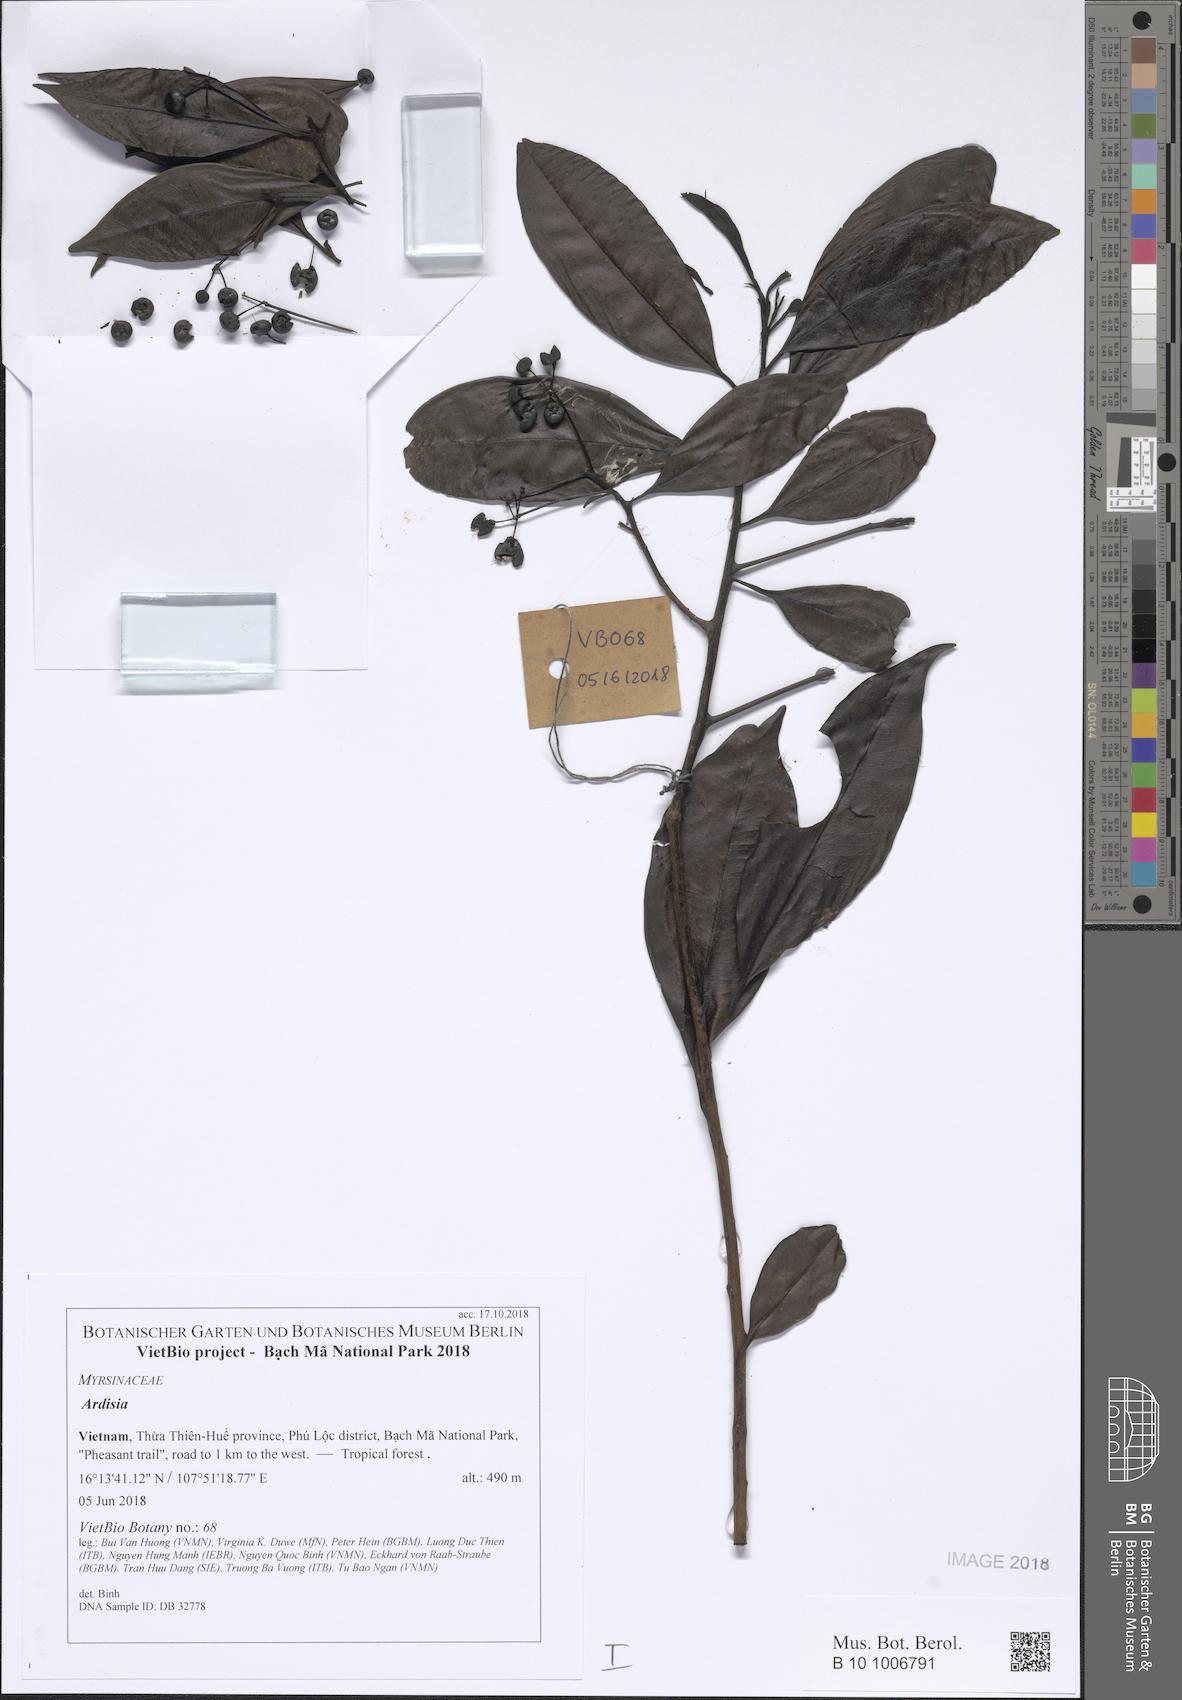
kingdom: Plantae
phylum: Tracheophyta
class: Magnoliopsida
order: Ericales
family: Primulaceae
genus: Ardisia
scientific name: Ardisia floribunda
